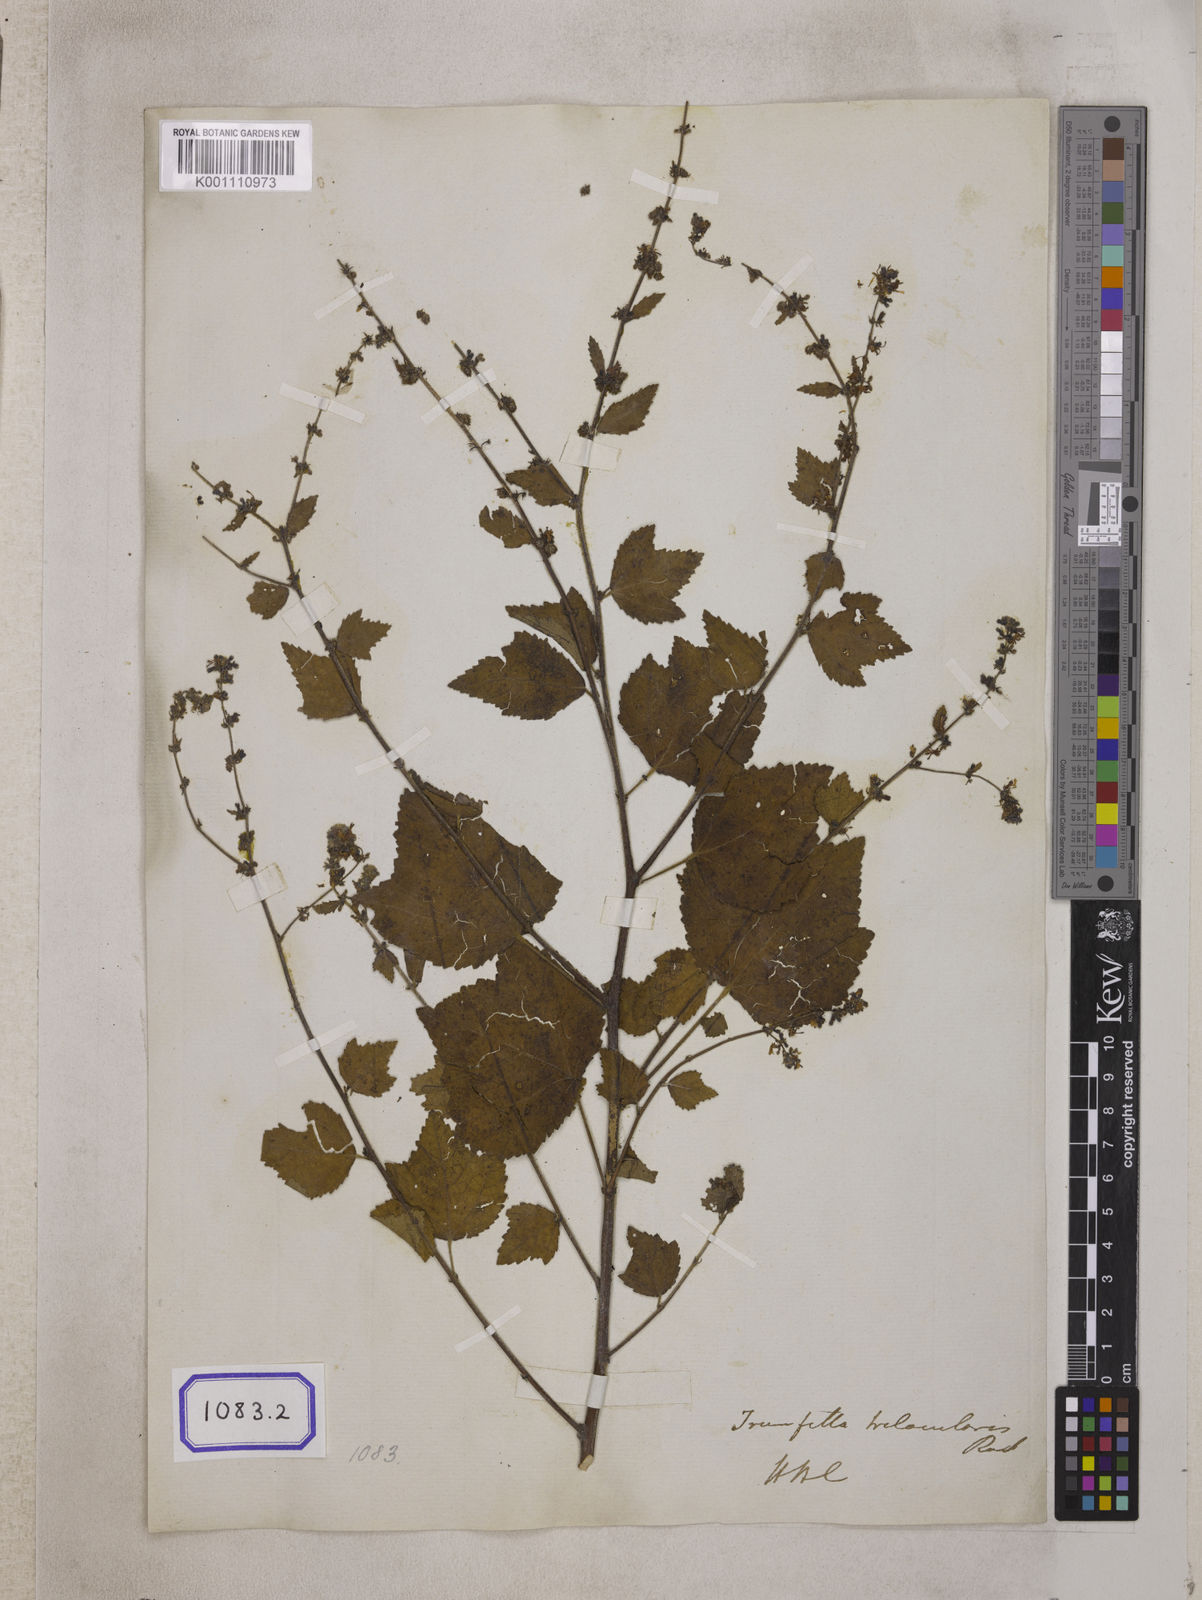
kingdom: Plantae
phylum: Tracheophyta
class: Magnoliopsida
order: Malvales
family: Malvaceae
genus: Triumfetta
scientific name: Triumfetta
